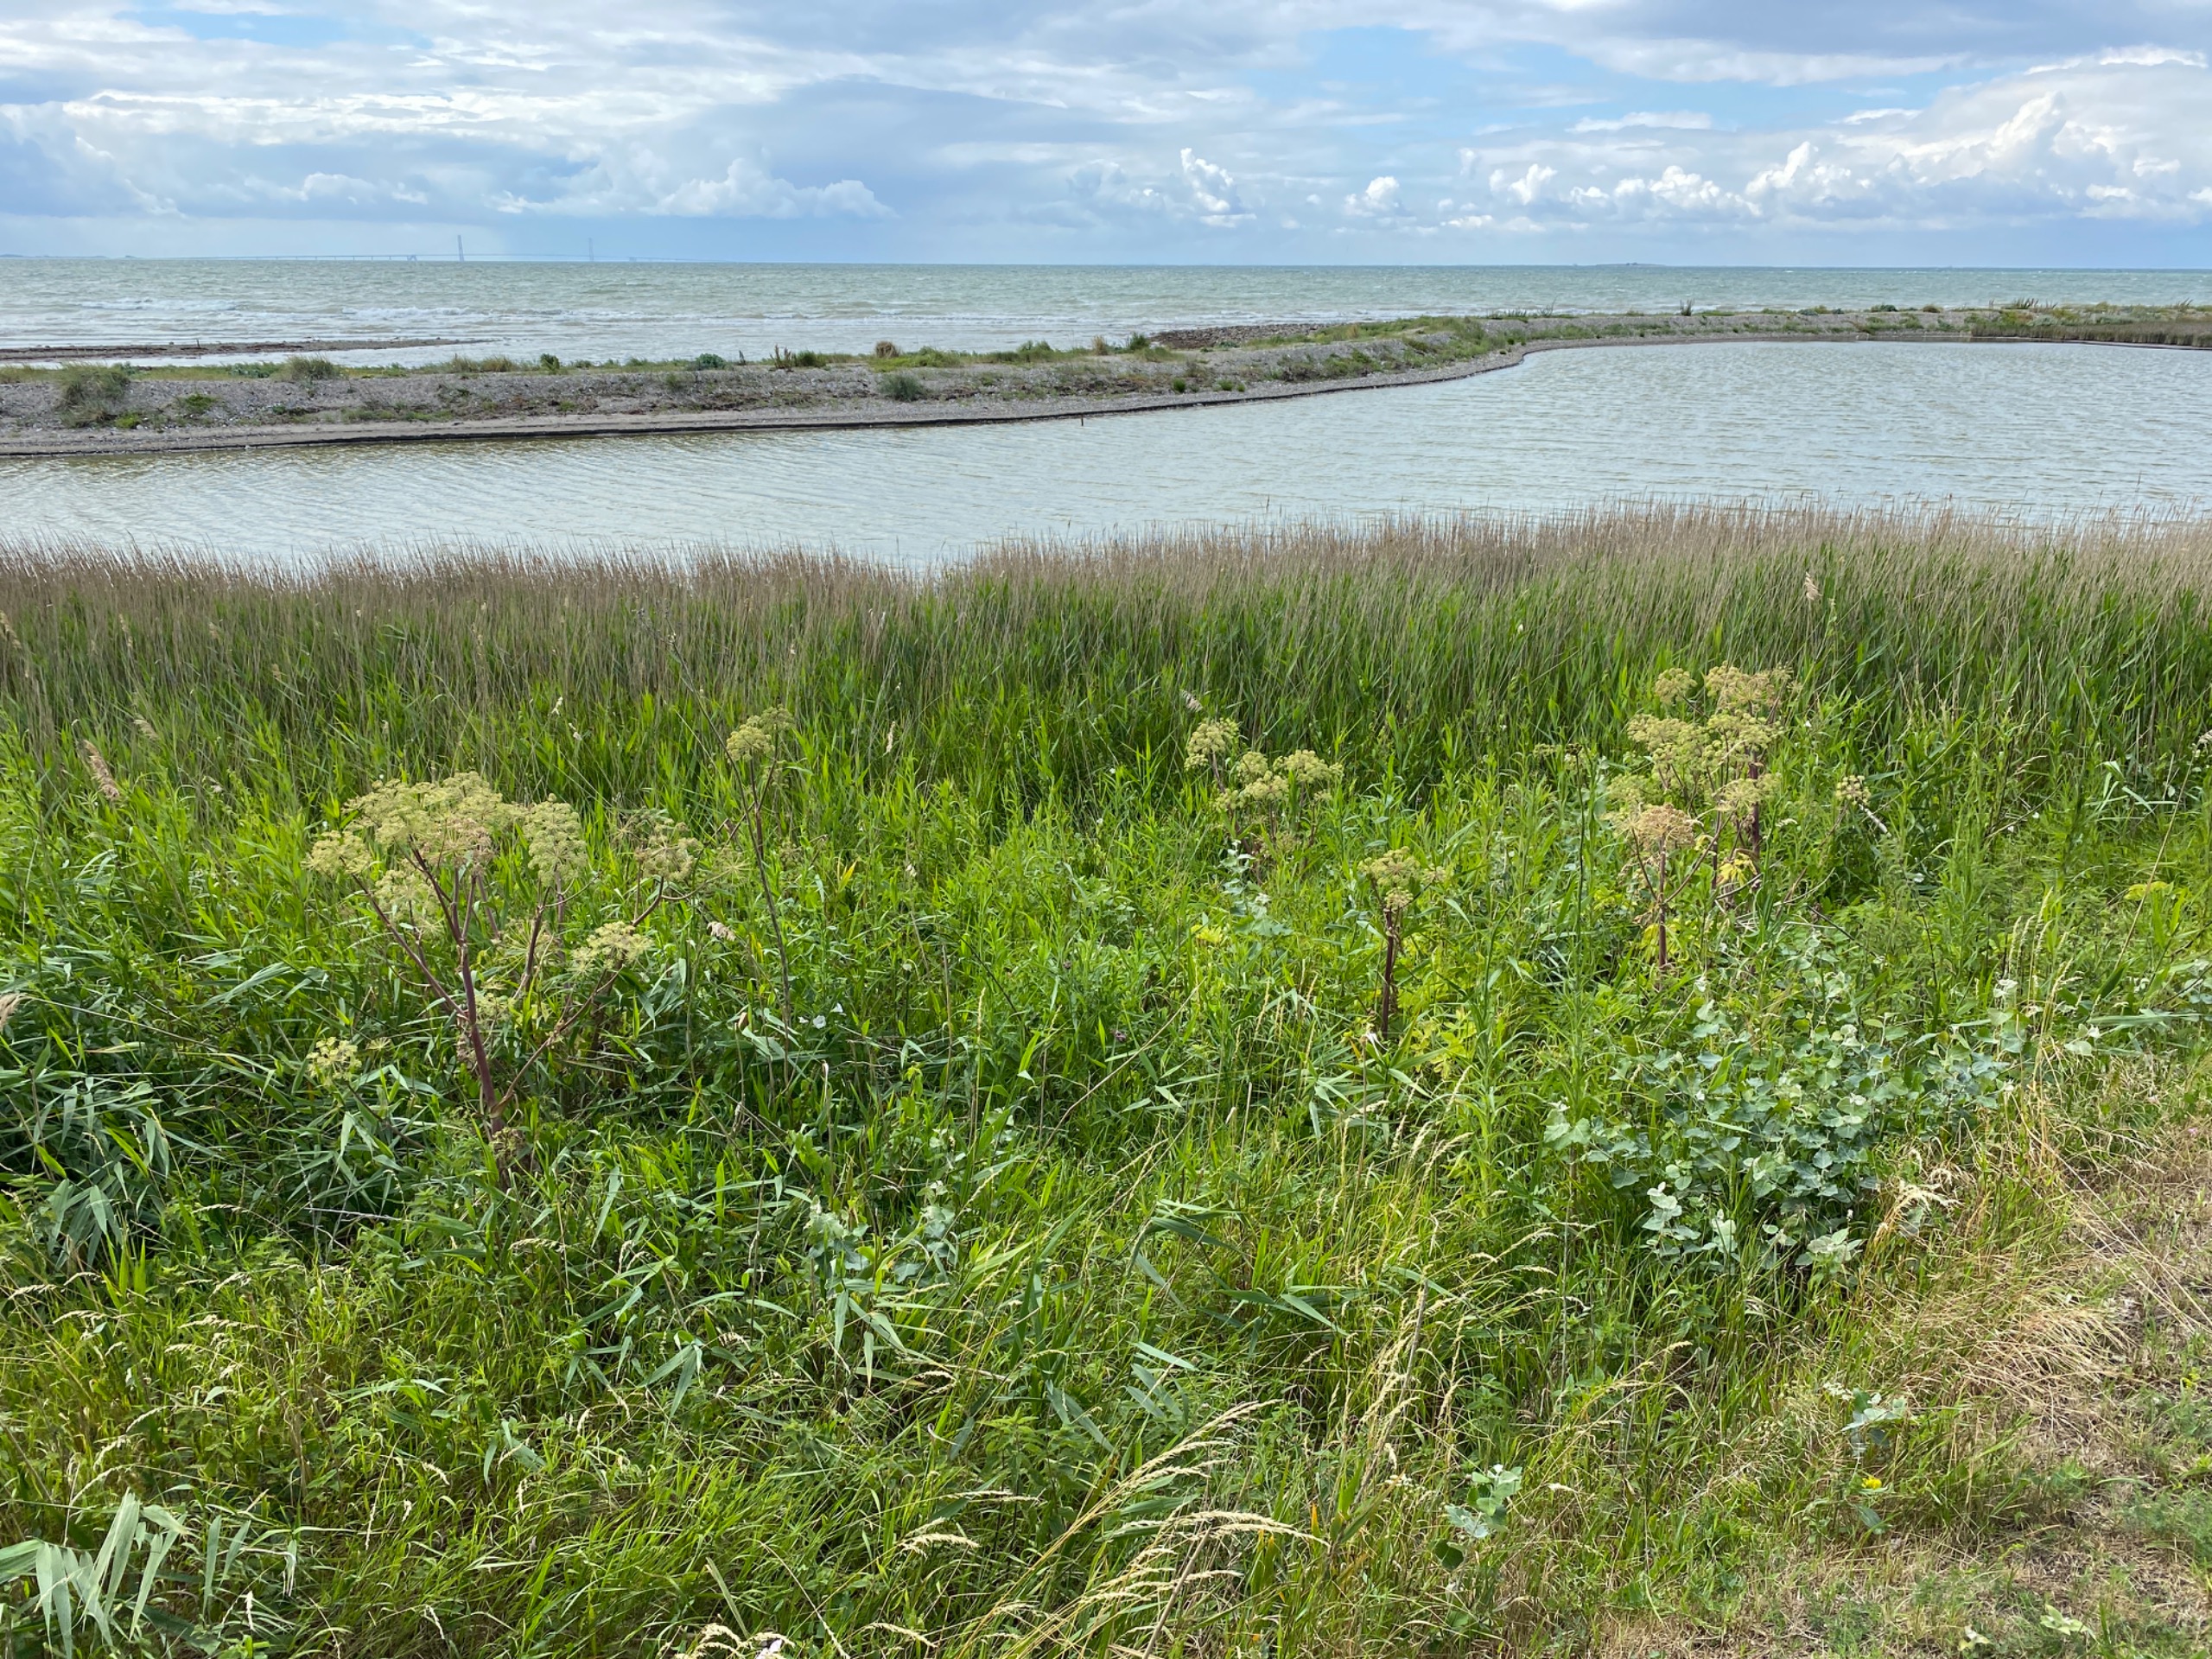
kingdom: Plantae
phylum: Tracheophyta
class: Magnoliopsida
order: Apiales
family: Apiaceae
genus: Angelica
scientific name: Angelica archangelica
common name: Kvan
